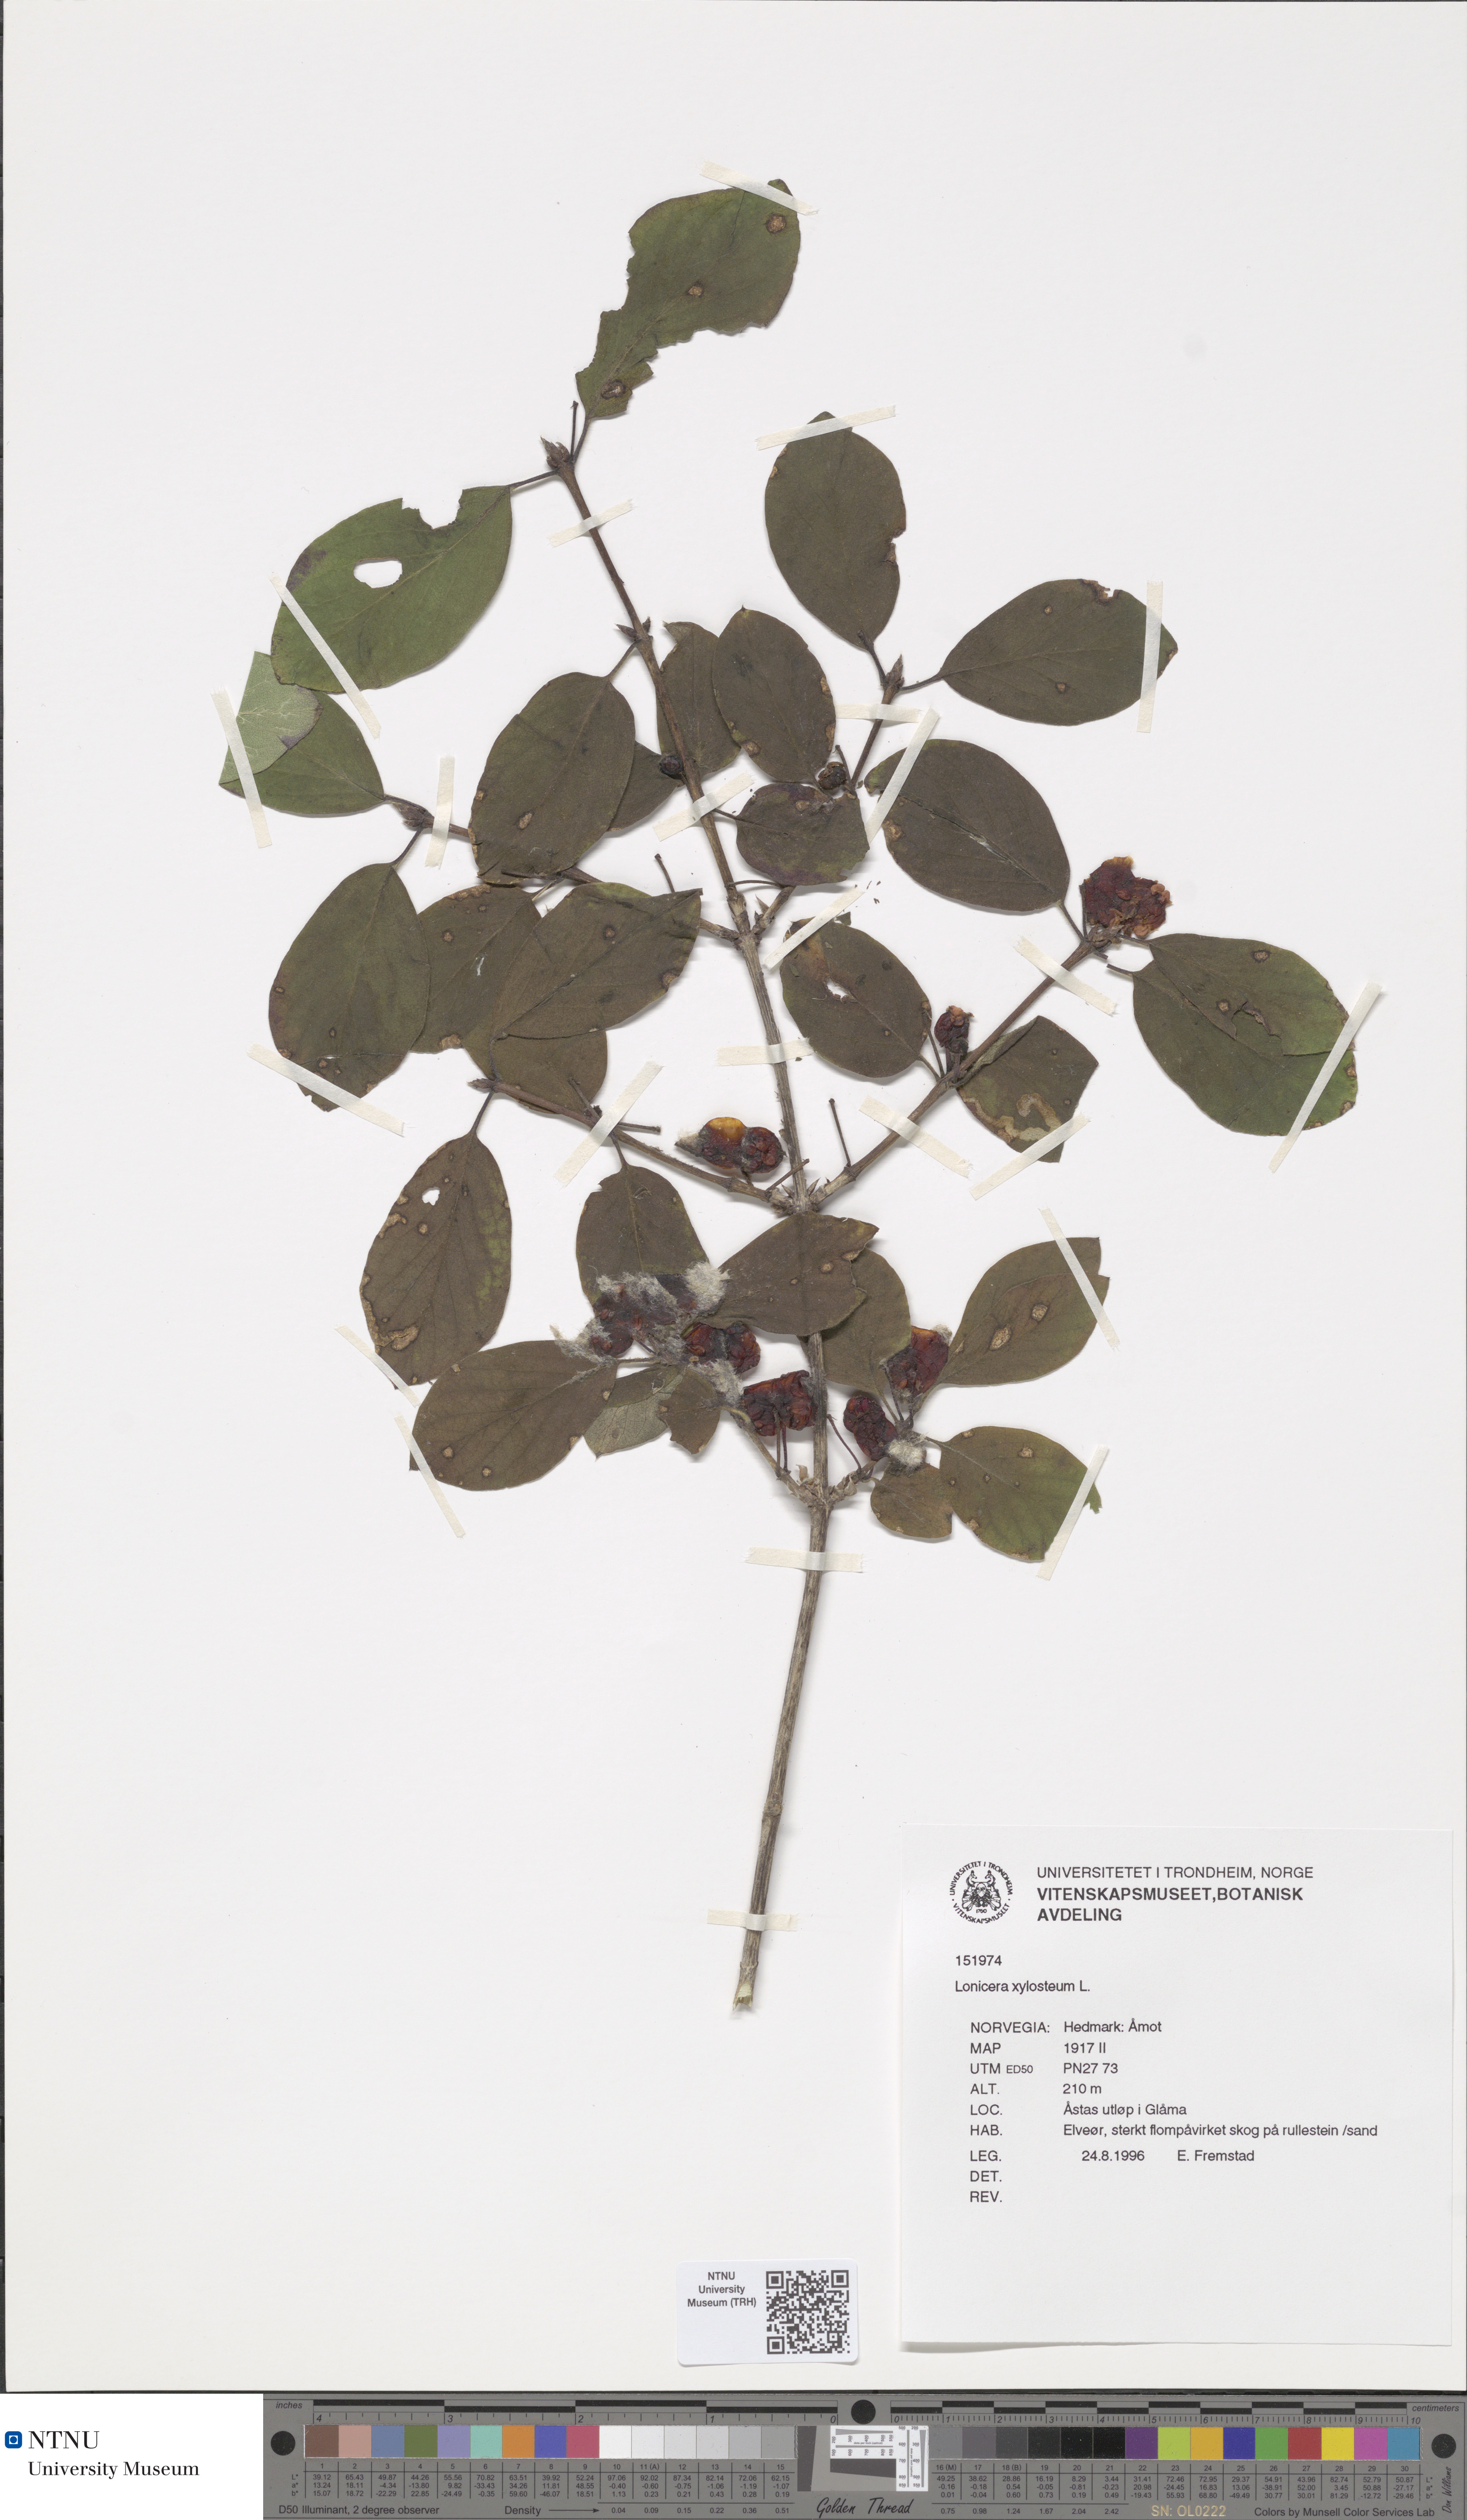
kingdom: Plantae
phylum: Tracheophyta
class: Magnoliopsida
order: Dipsacales
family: Caprifoliaceae
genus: Lonicera
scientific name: Lonicera xylosteum
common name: Fly honeysuckle
